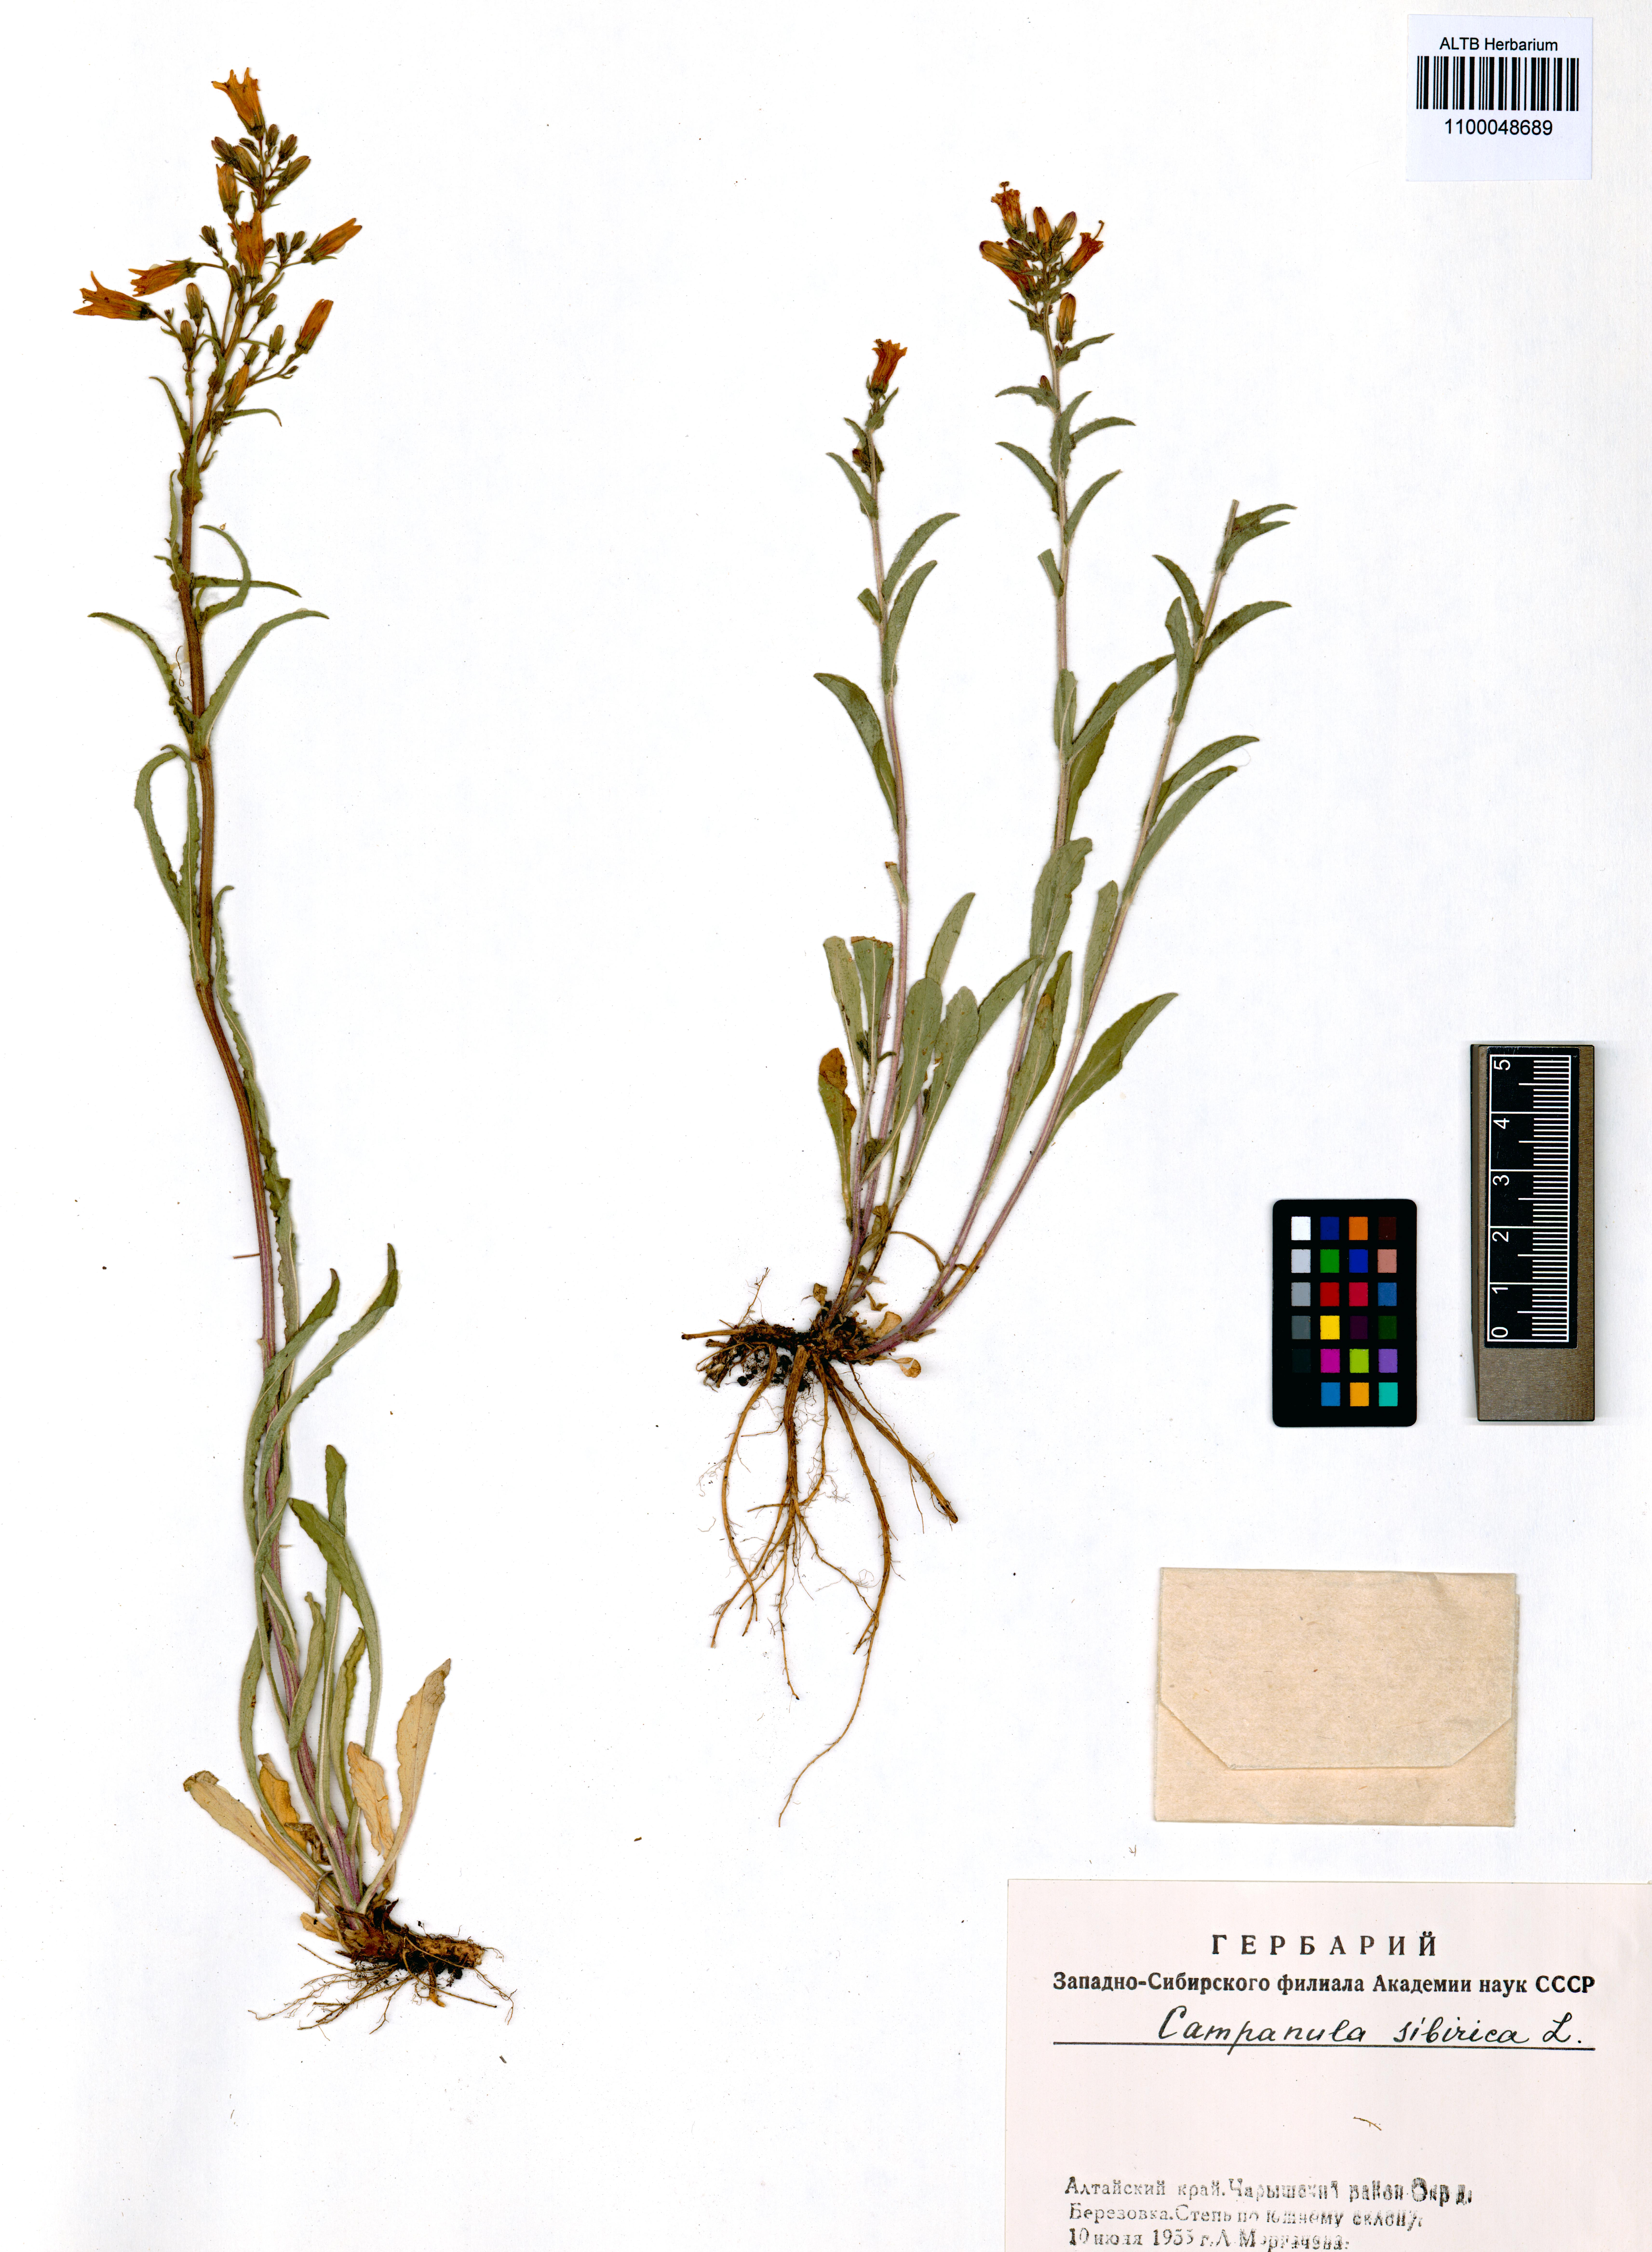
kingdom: Plantae
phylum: Tracheophyta
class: Magnoliopsida
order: Asterales
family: Campanulaceae
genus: Campanula
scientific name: Campanula sibirica
